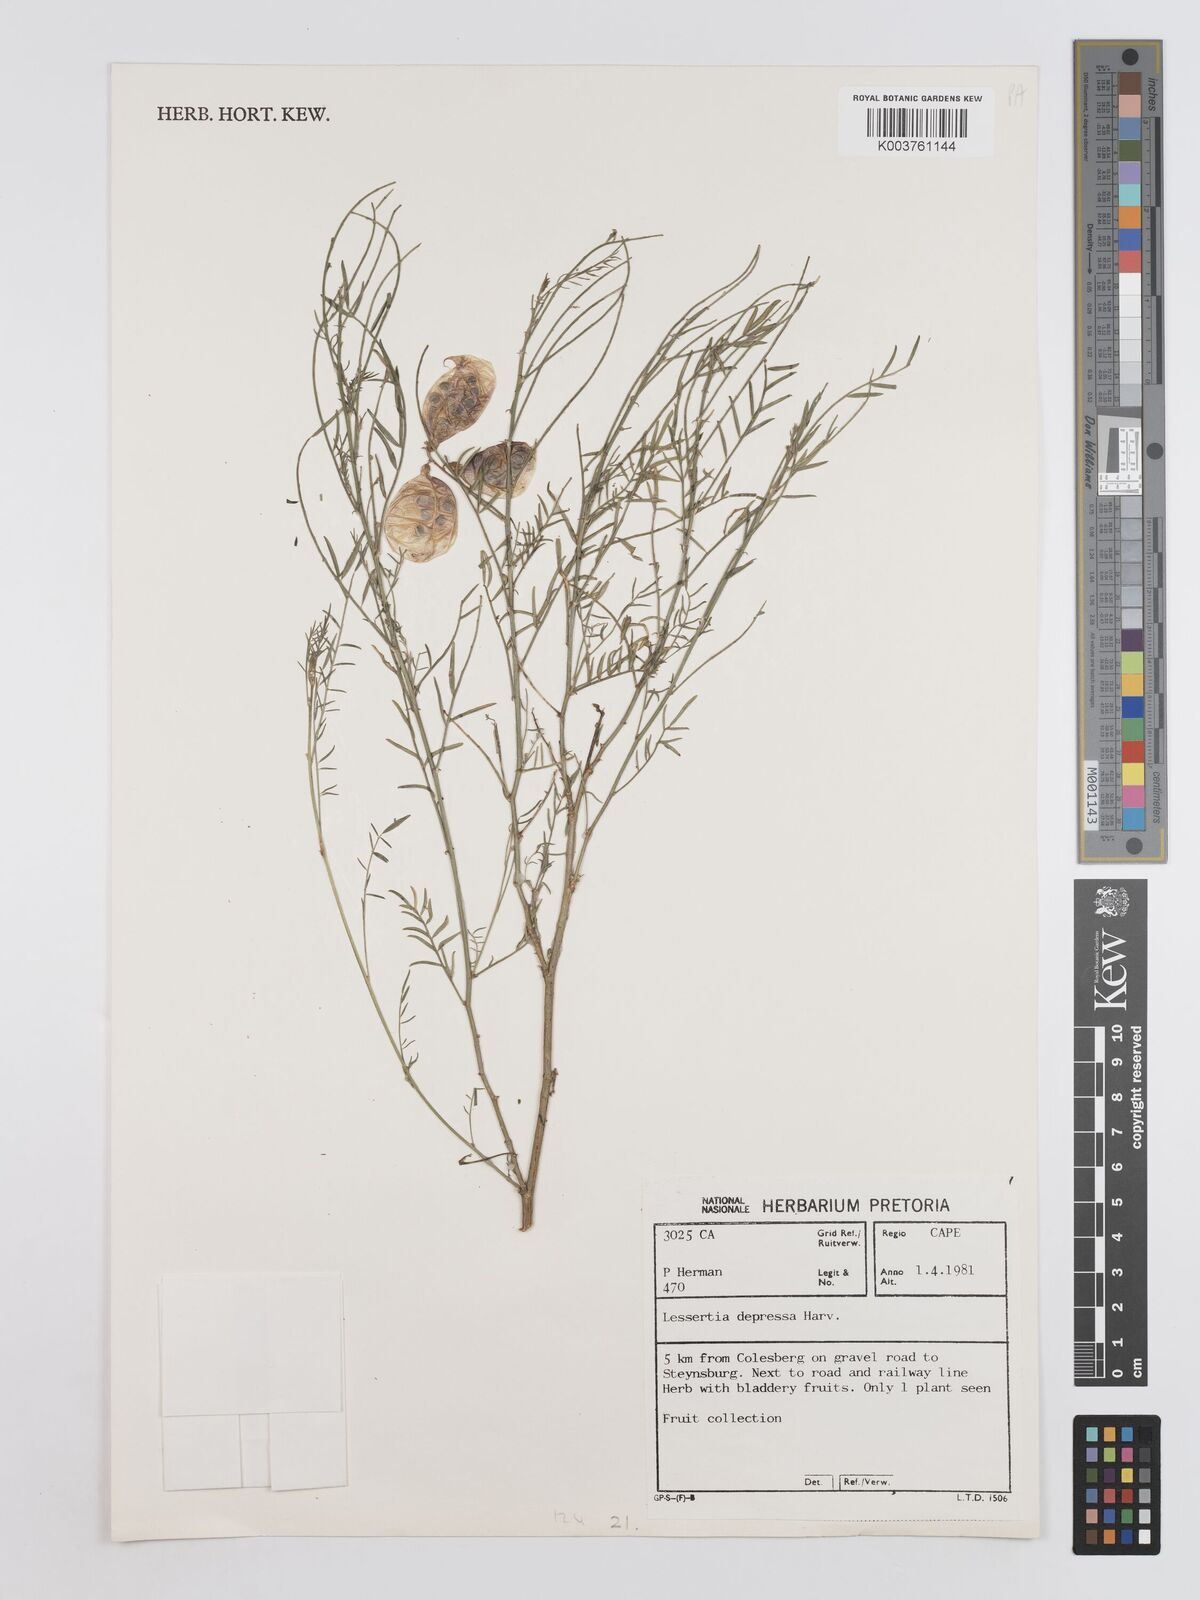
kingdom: Plantae
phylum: Tracheophyta
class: Magnoliopsida
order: Fabales
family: Fabaceae
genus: Lessertia
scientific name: Lessertia depressa
